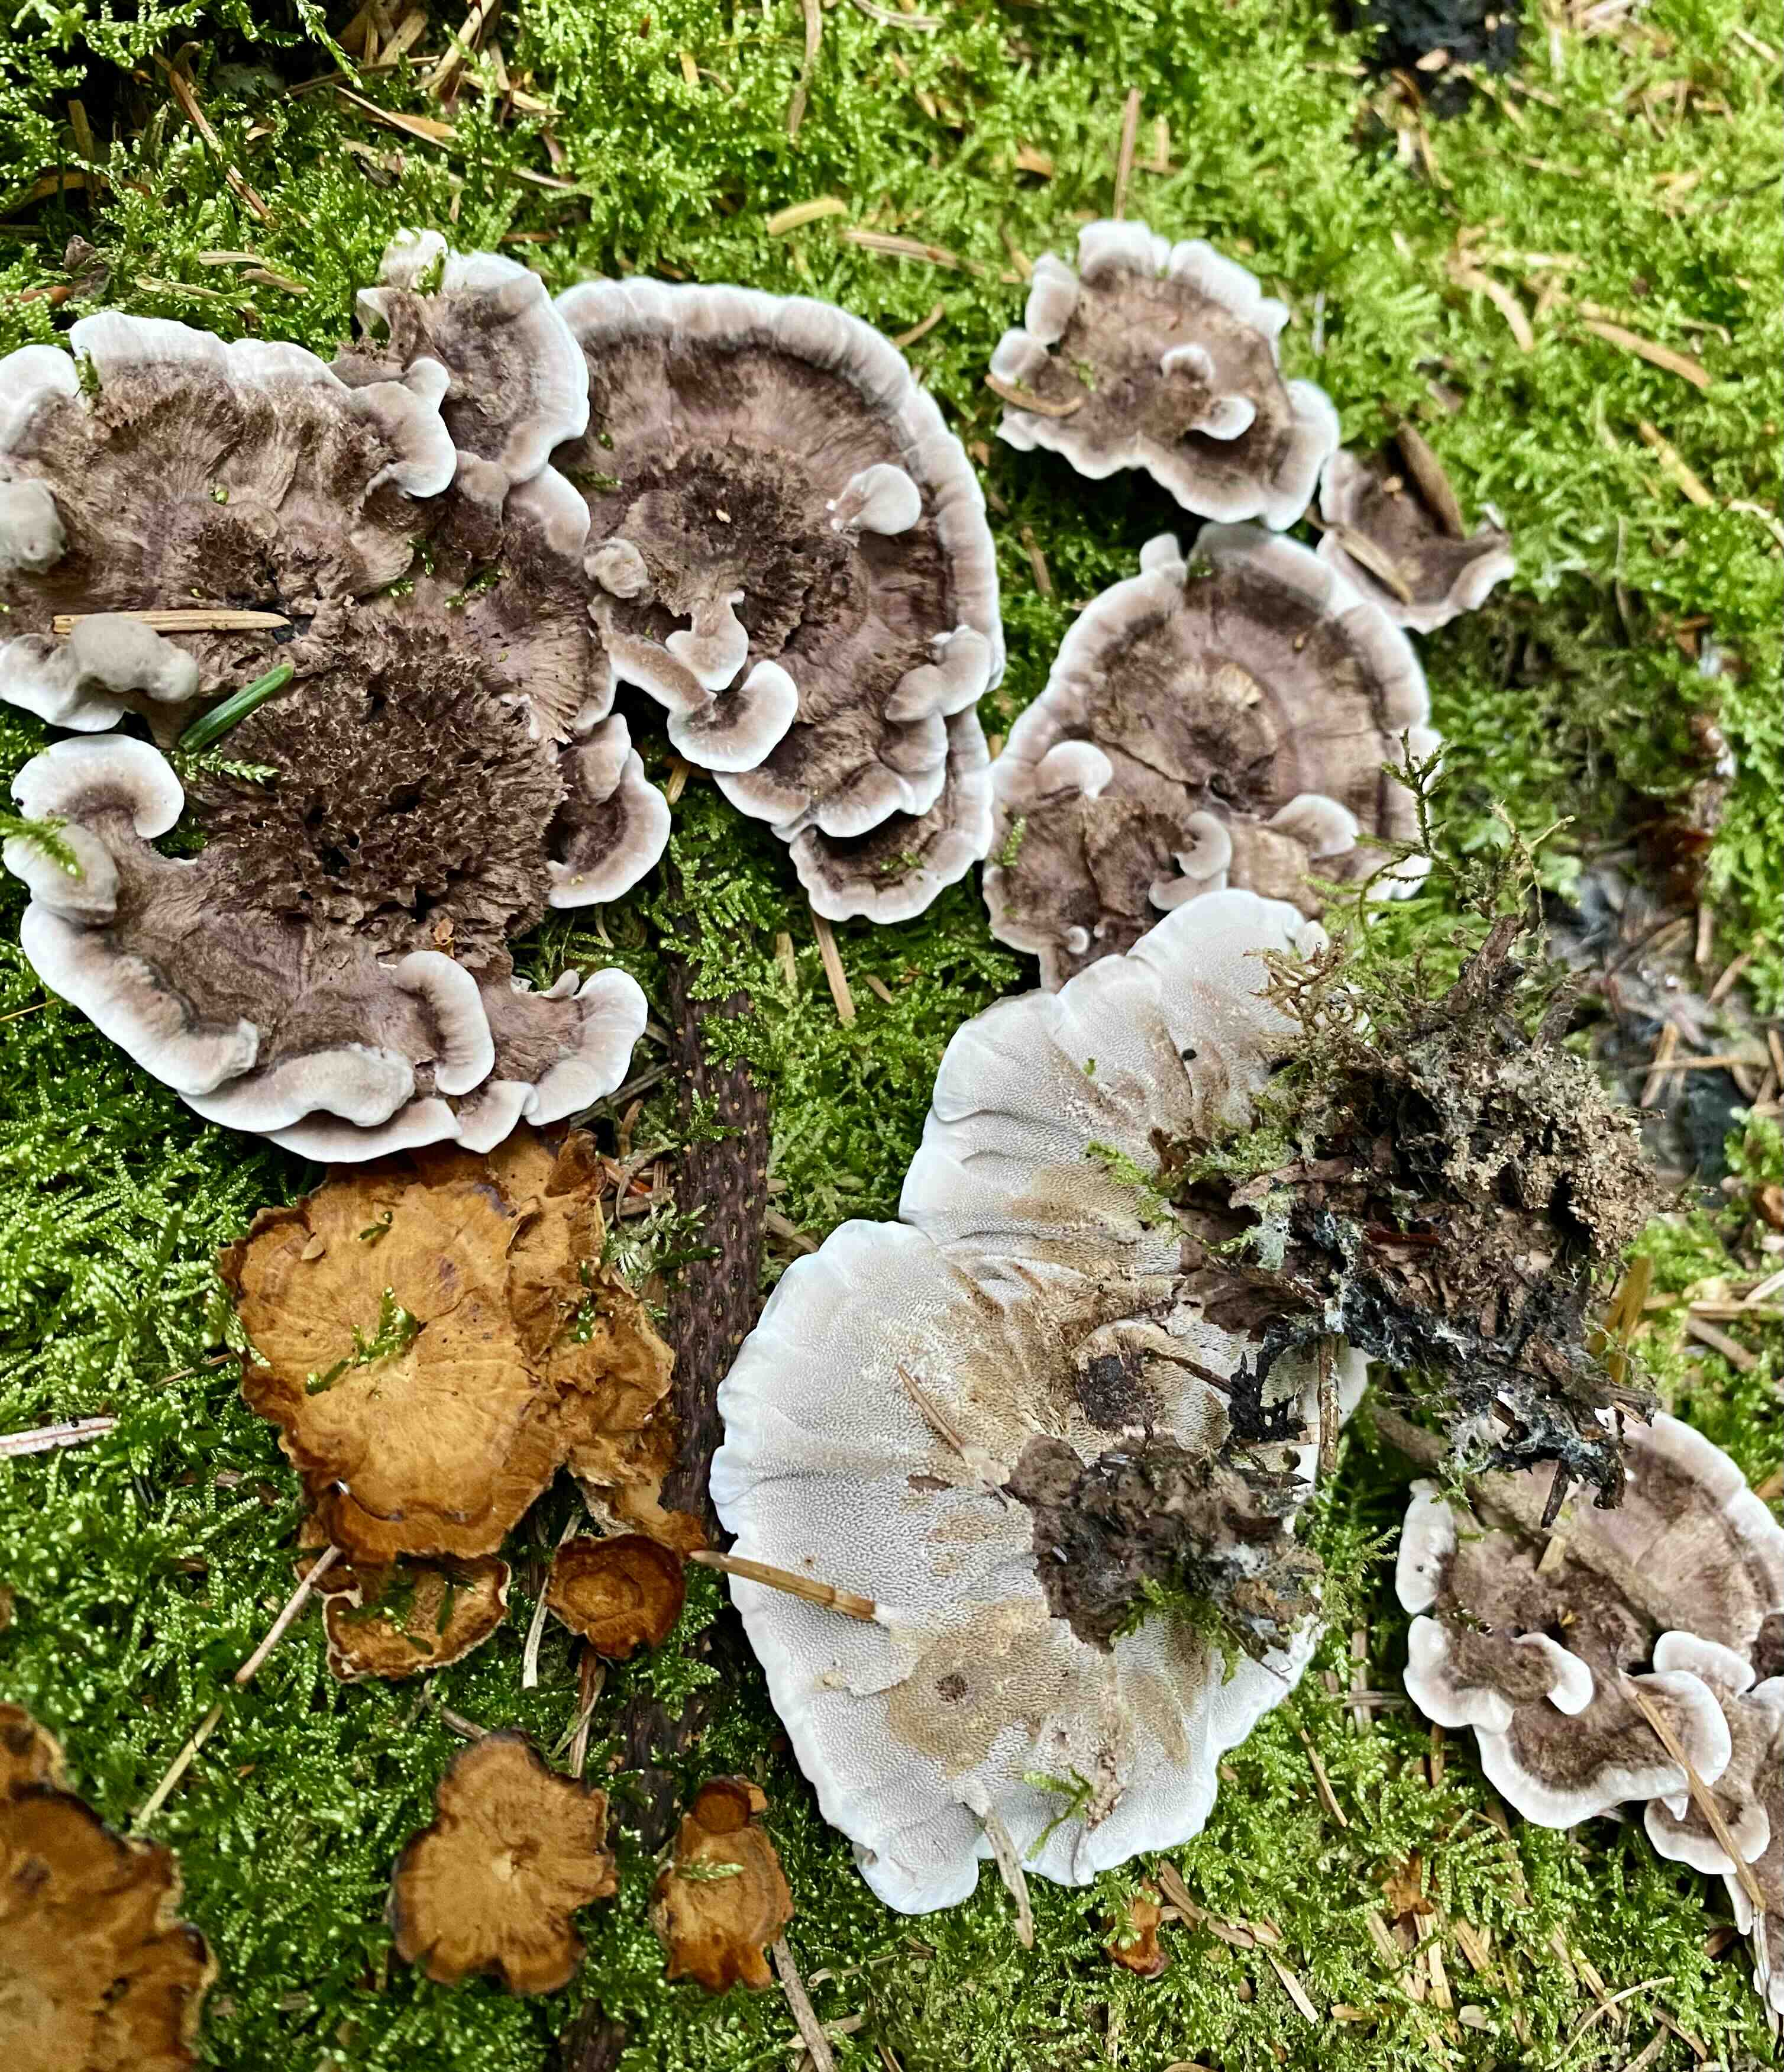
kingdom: Fungi
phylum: Basidiomycota
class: Agaricomycetes
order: Thelephorales
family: Thelephoraceae
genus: Phellodon
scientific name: Phellodon tomentosus
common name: vellugtende duftpigsvamp
